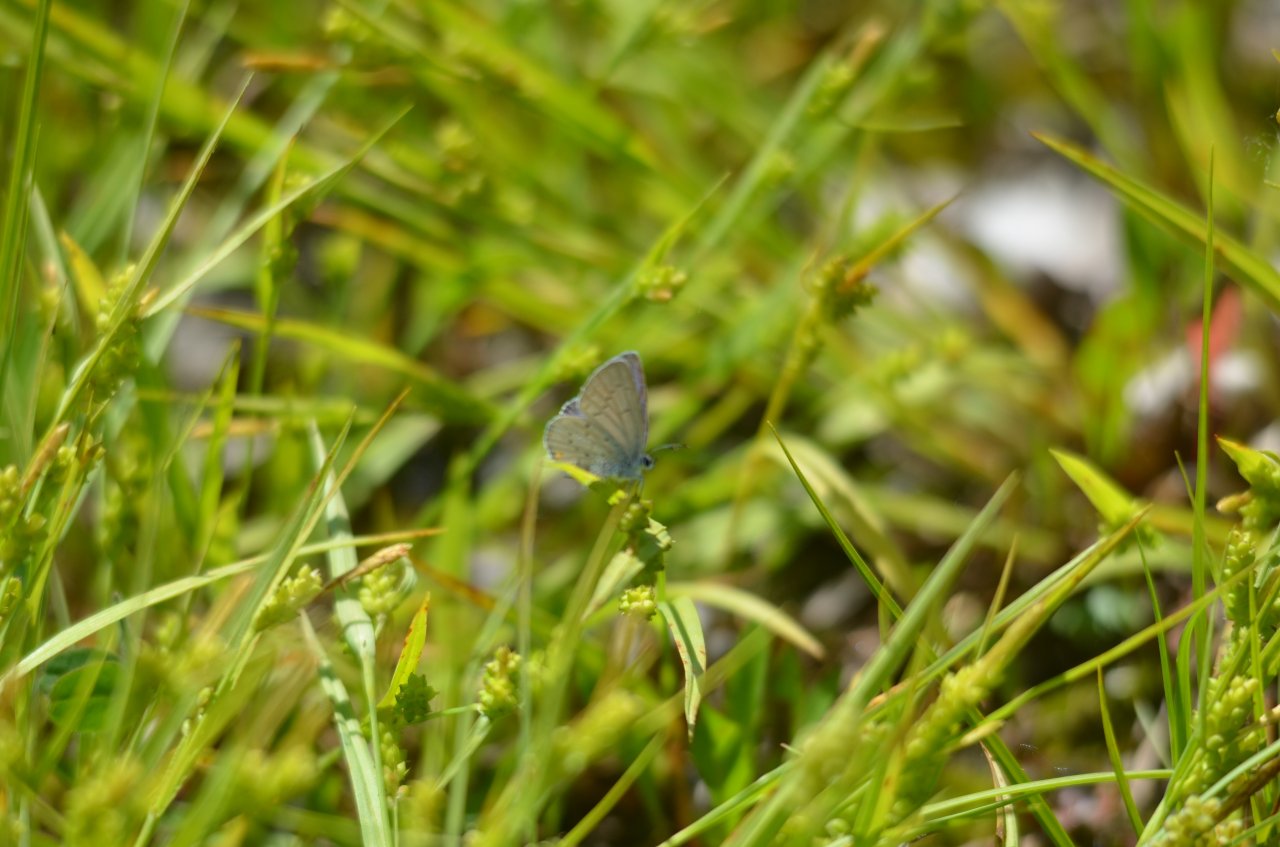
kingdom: Animalia
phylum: Arthropoda
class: Insecta
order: Lepidoptera
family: Lycaenidae
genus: Elkalyce
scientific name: Elkalyce comyntas
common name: Eastern Tailed-Blue
